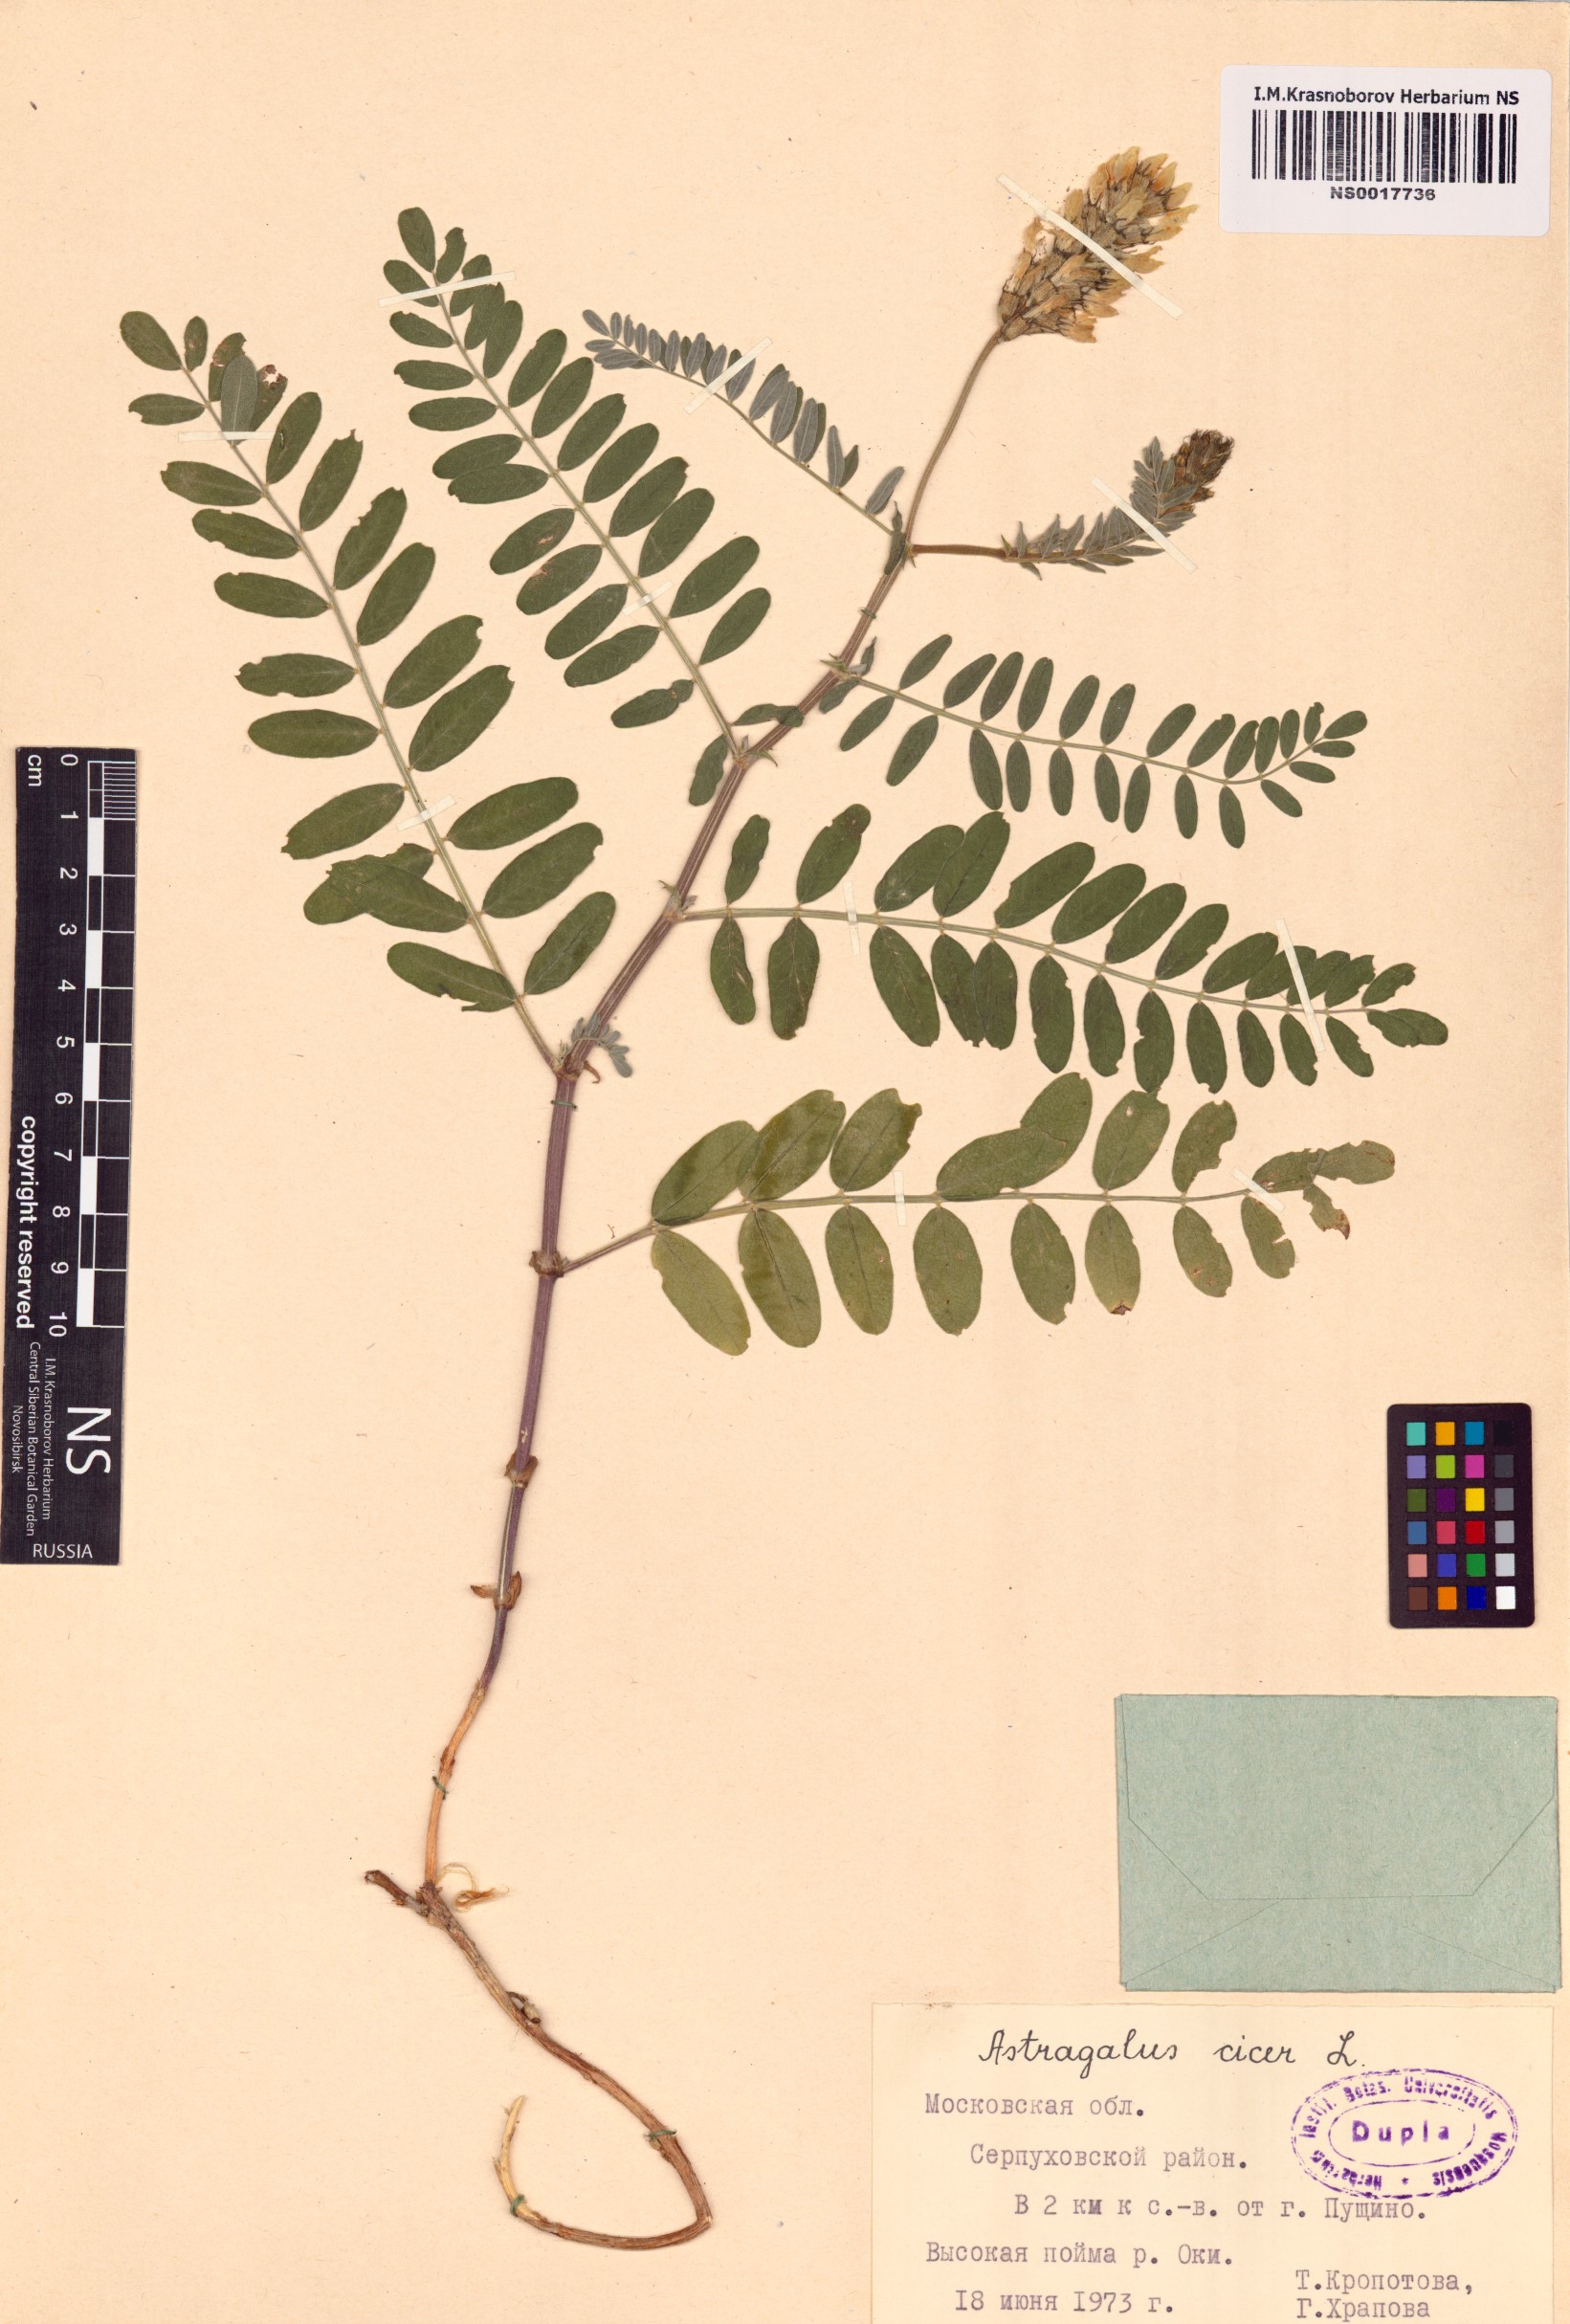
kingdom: Plantae
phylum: Tracheophyta
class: Magnoliopsida
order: Fabales
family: Fabaceae
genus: Astragalus
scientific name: Astragalus cicer
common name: Chick-pea milk-vetch
